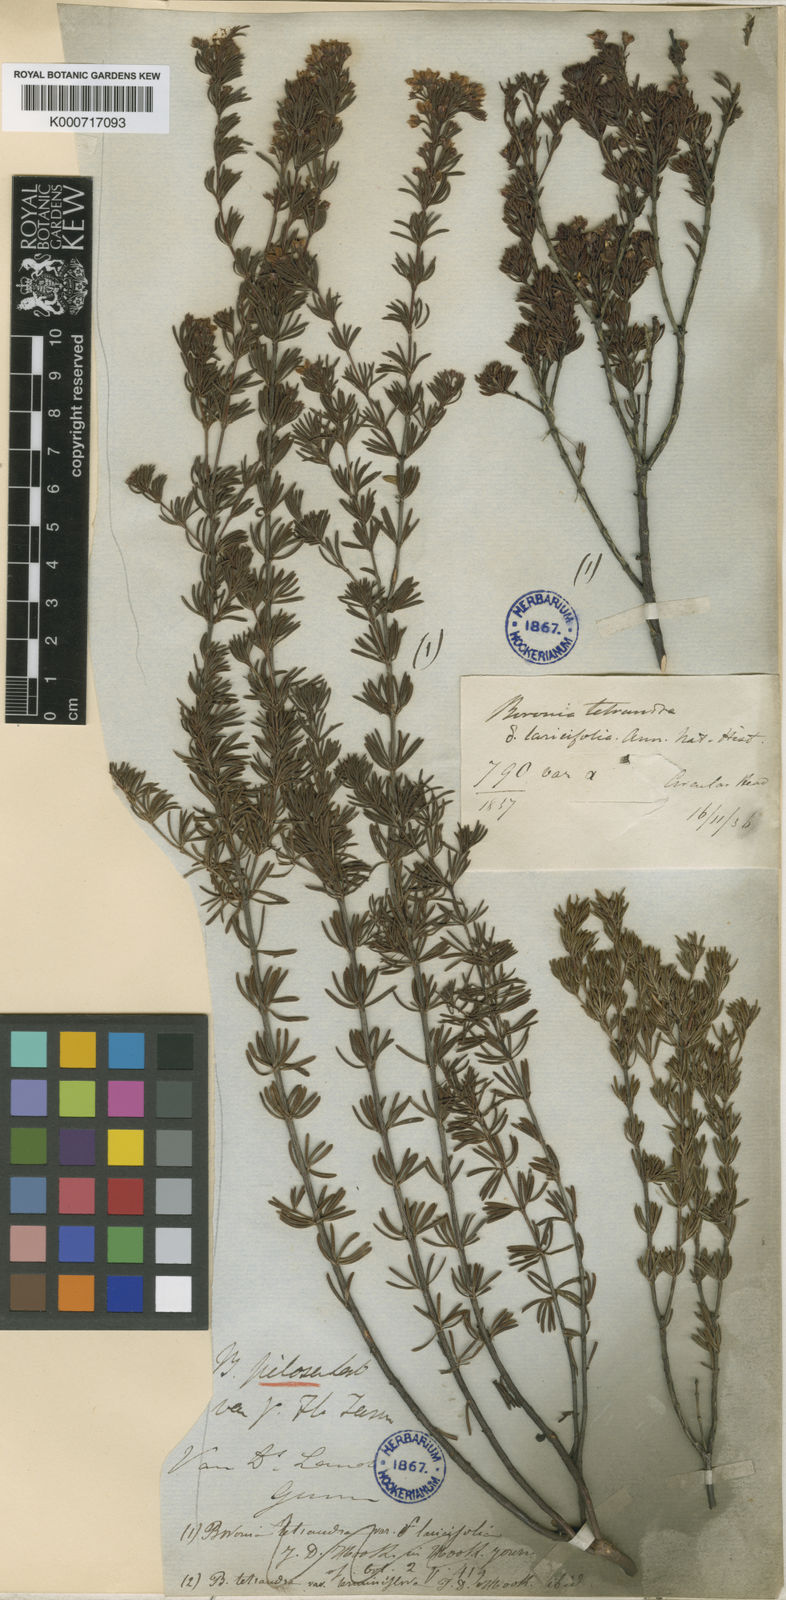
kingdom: Plantae
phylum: Tracheophyta
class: Magnoliopsida
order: Sapindales
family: Rutaceae
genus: Boronia
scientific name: Boronia pilosa
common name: Hairy boronia
